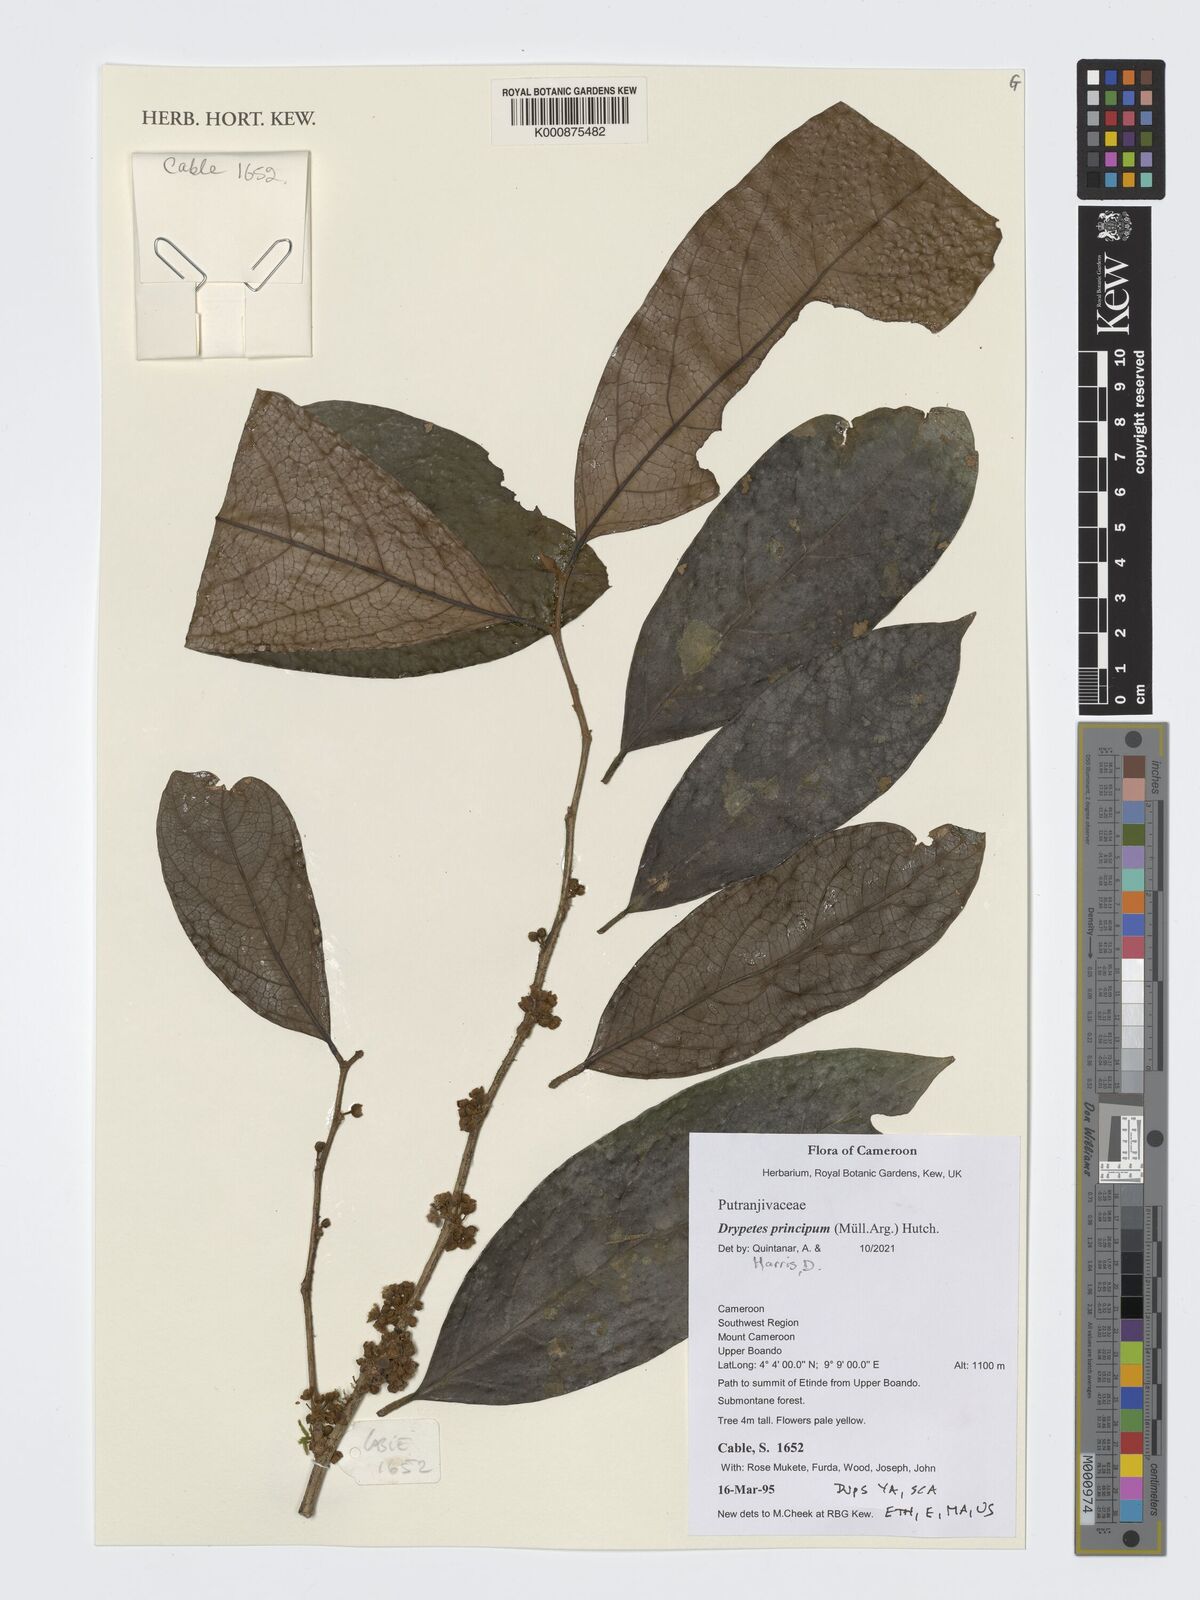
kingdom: Plantae
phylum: Tracheophyta
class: Magnoliopsida
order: Malpighiales
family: Putranjivaceae
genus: Drypetes
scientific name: Drypetes principum
